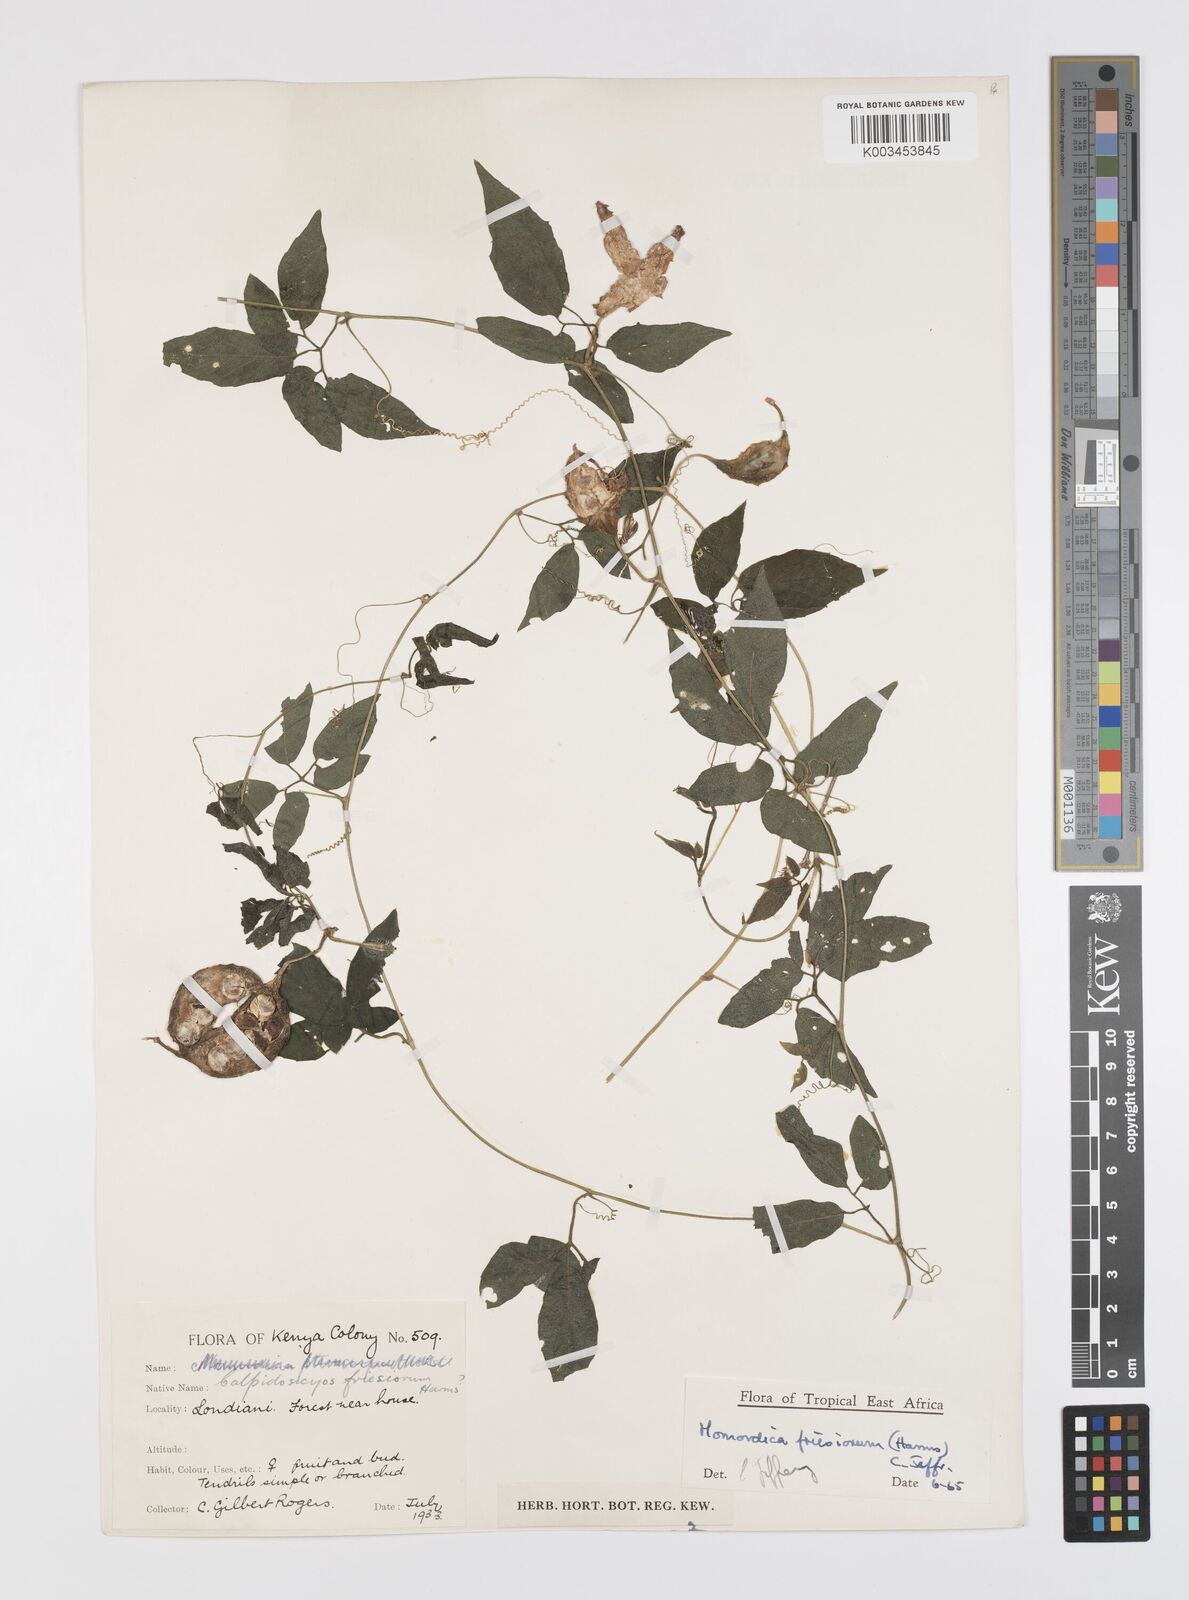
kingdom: Plantae
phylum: Tracheophyta
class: Magnoliopsida
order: Cucurbitales
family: Cucurbitaceae
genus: Momordica
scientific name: Momordica friesiorum
